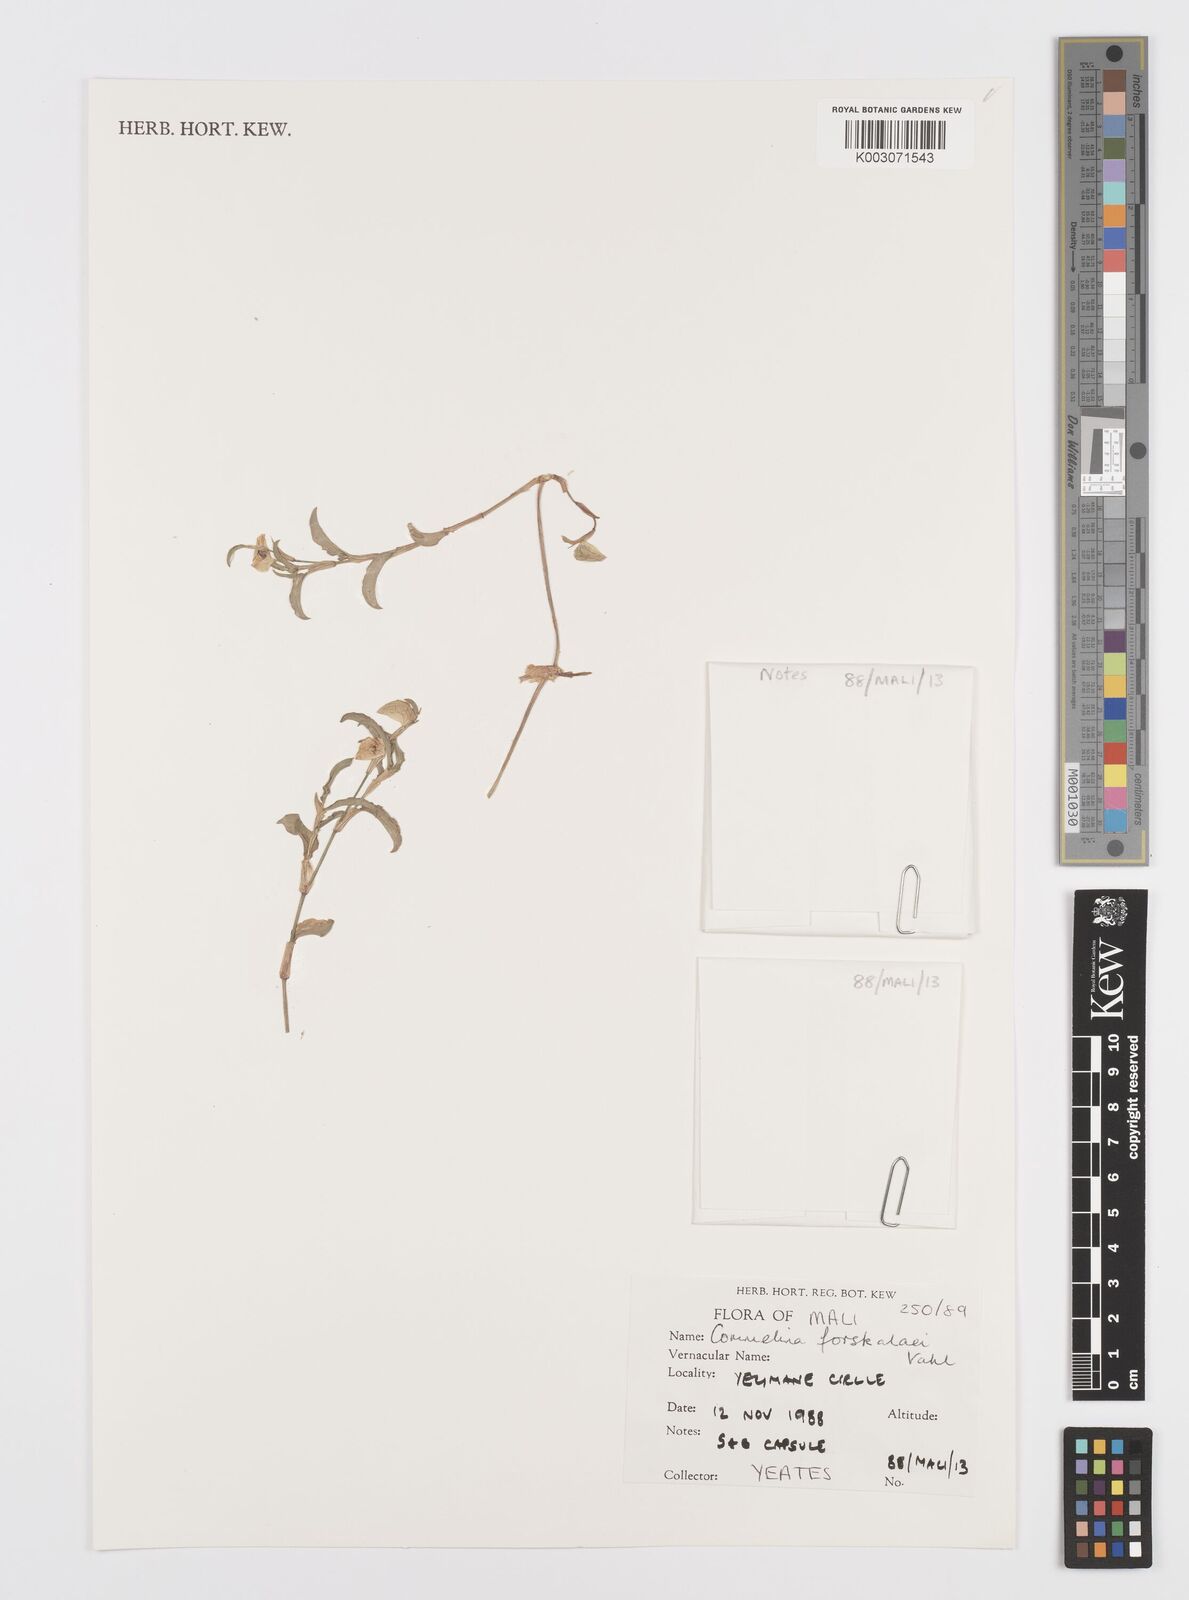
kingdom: Plantae
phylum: Tracheophyta
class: Liliopsida
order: Commelinales
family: Commelinaceae
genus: Commelina
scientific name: Commelina forskaolii
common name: Rat's ear
